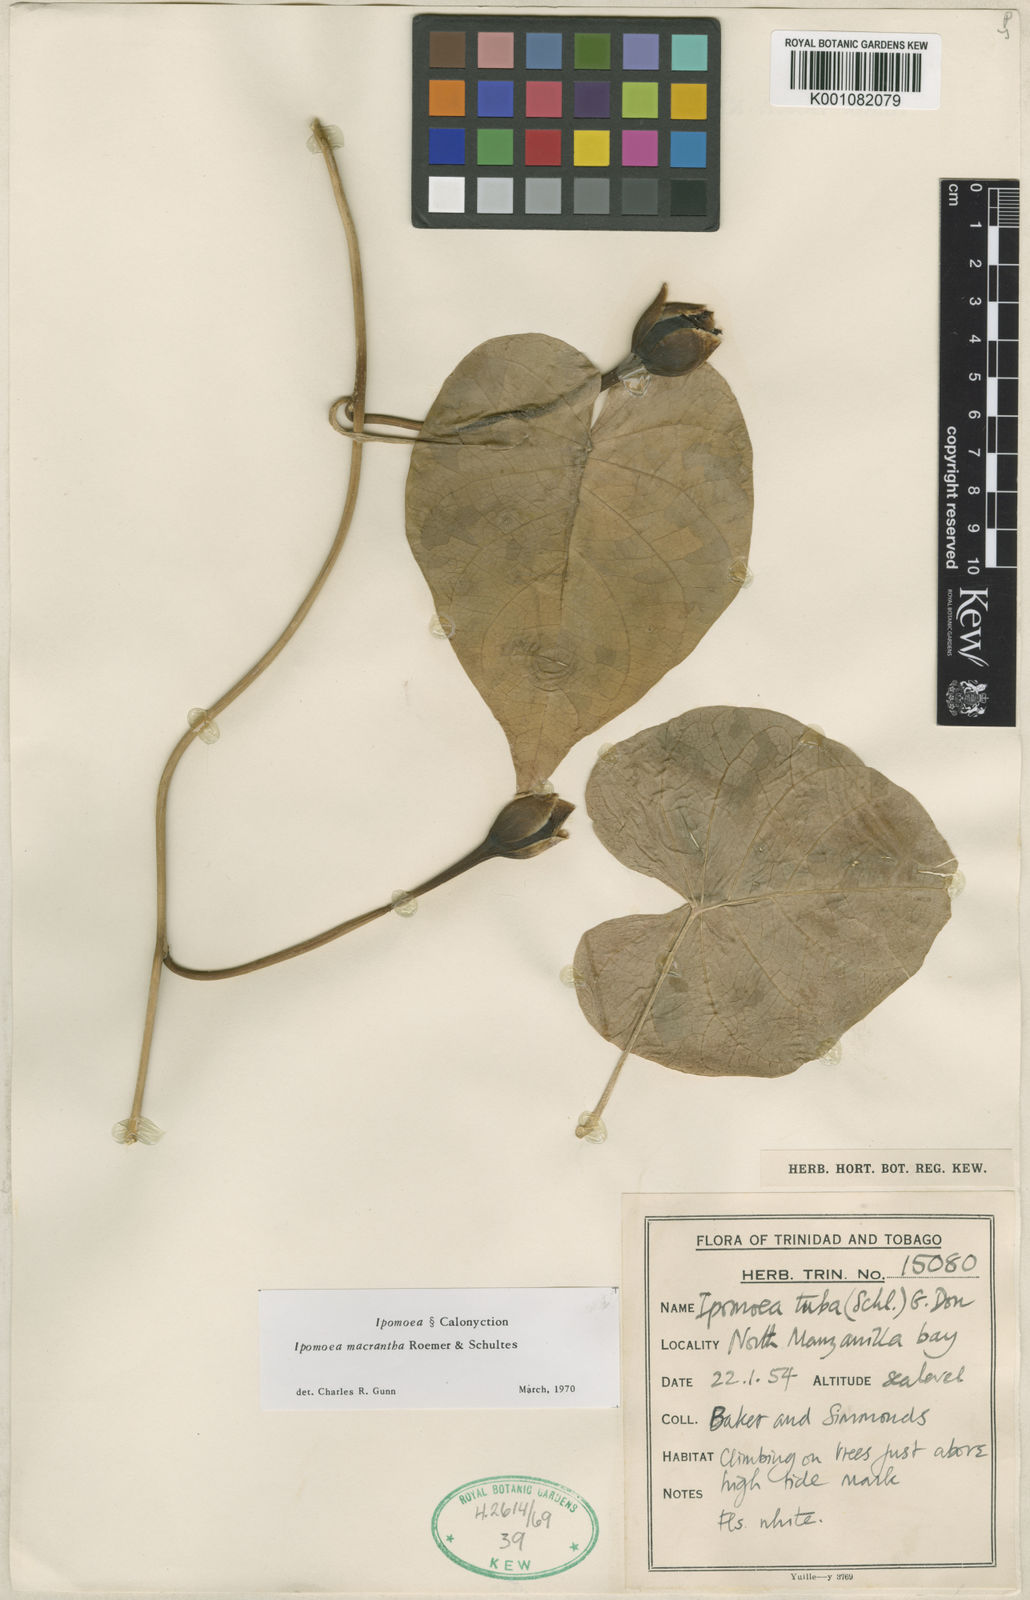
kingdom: Plantae
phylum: Tracheophyta
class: Magnoliopsida
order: Solanales
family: Convolvulaceae
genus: Ipomoea
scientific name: Ipomoea violacea
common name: Beach moonflower
